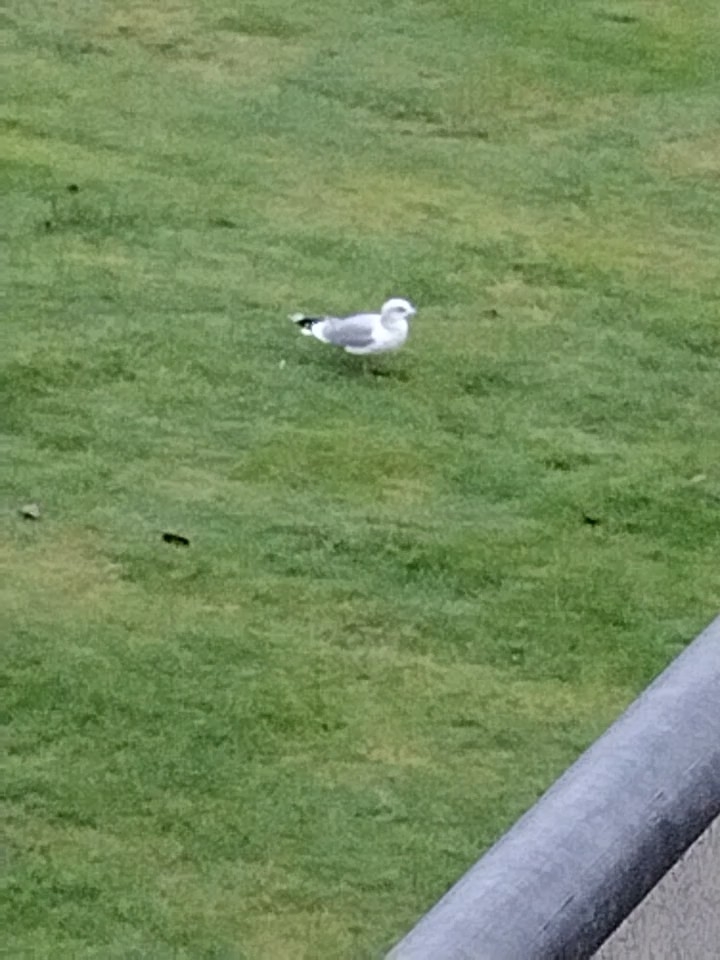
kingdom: Animalia
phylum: Chordata
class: Aves
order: Charadriiformes
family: Laridae
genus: Larus
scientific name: Larus canus
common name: Stormmåge
